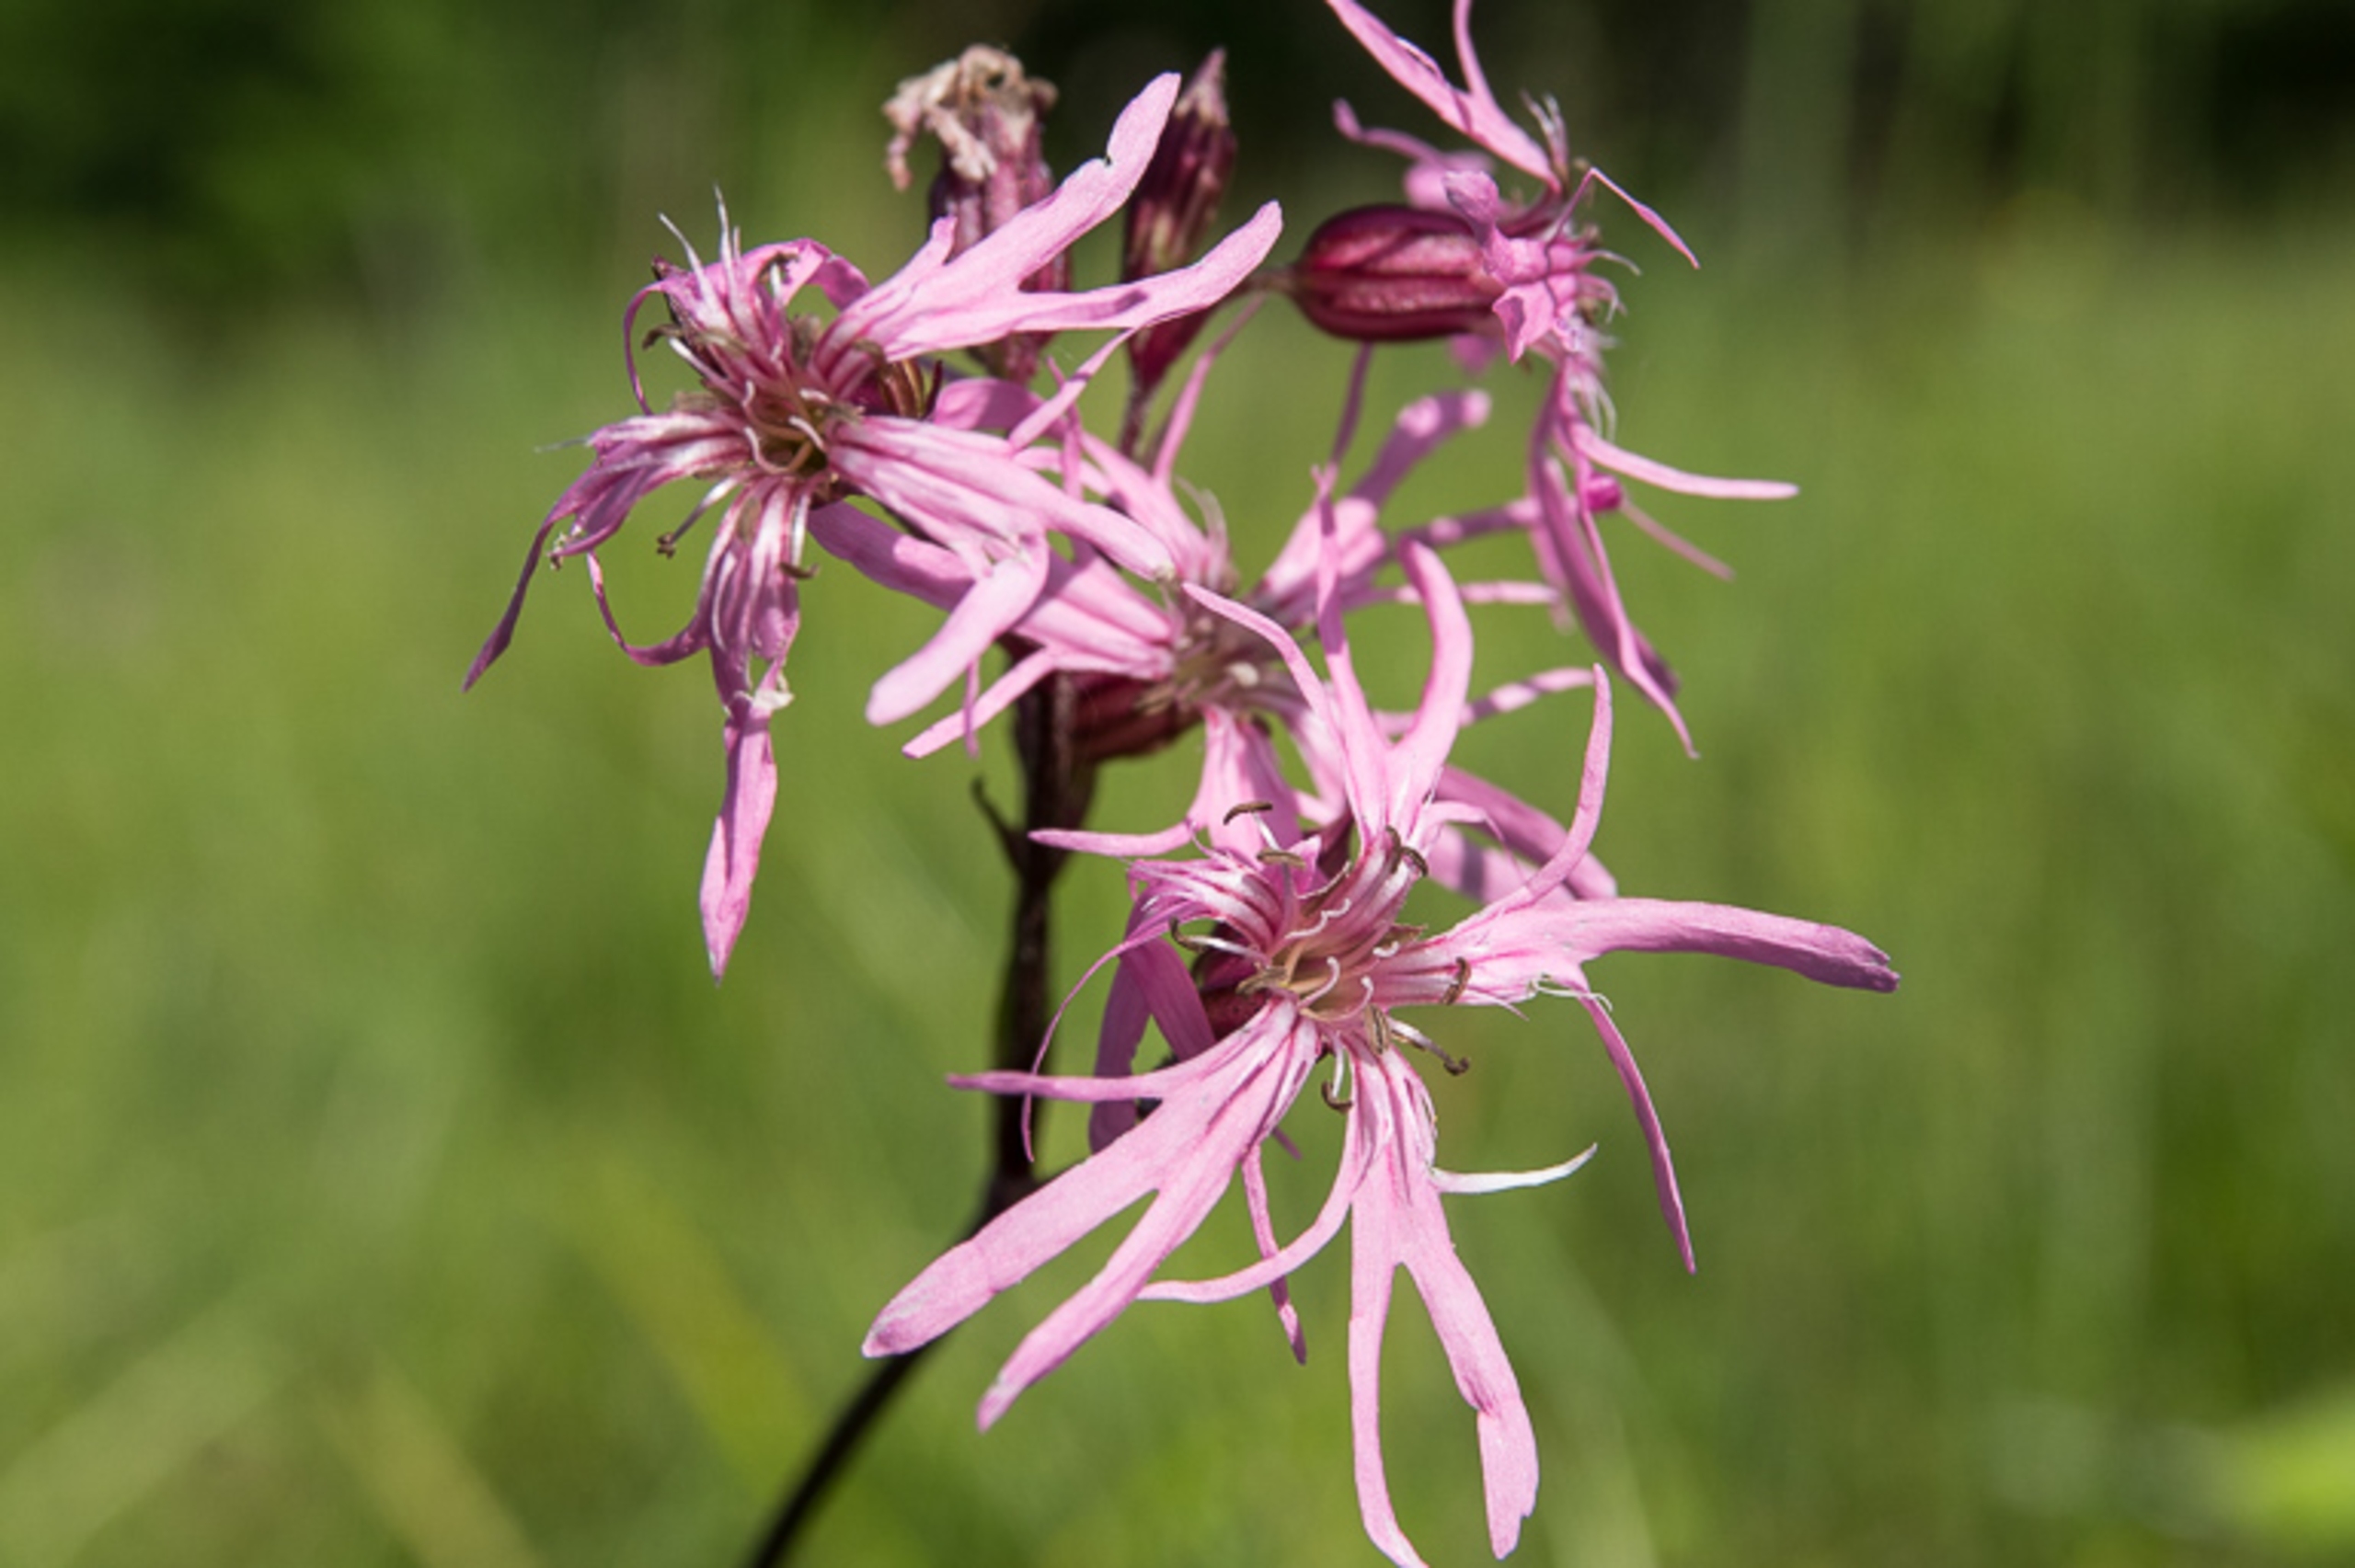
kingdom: Plantae
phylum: Tracheophyta
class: Magnoliopsida
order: Caryophyllales
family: Caryophyllaceae
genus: Silene
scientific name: Silene flos-cuculi
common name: Trævlekrone
